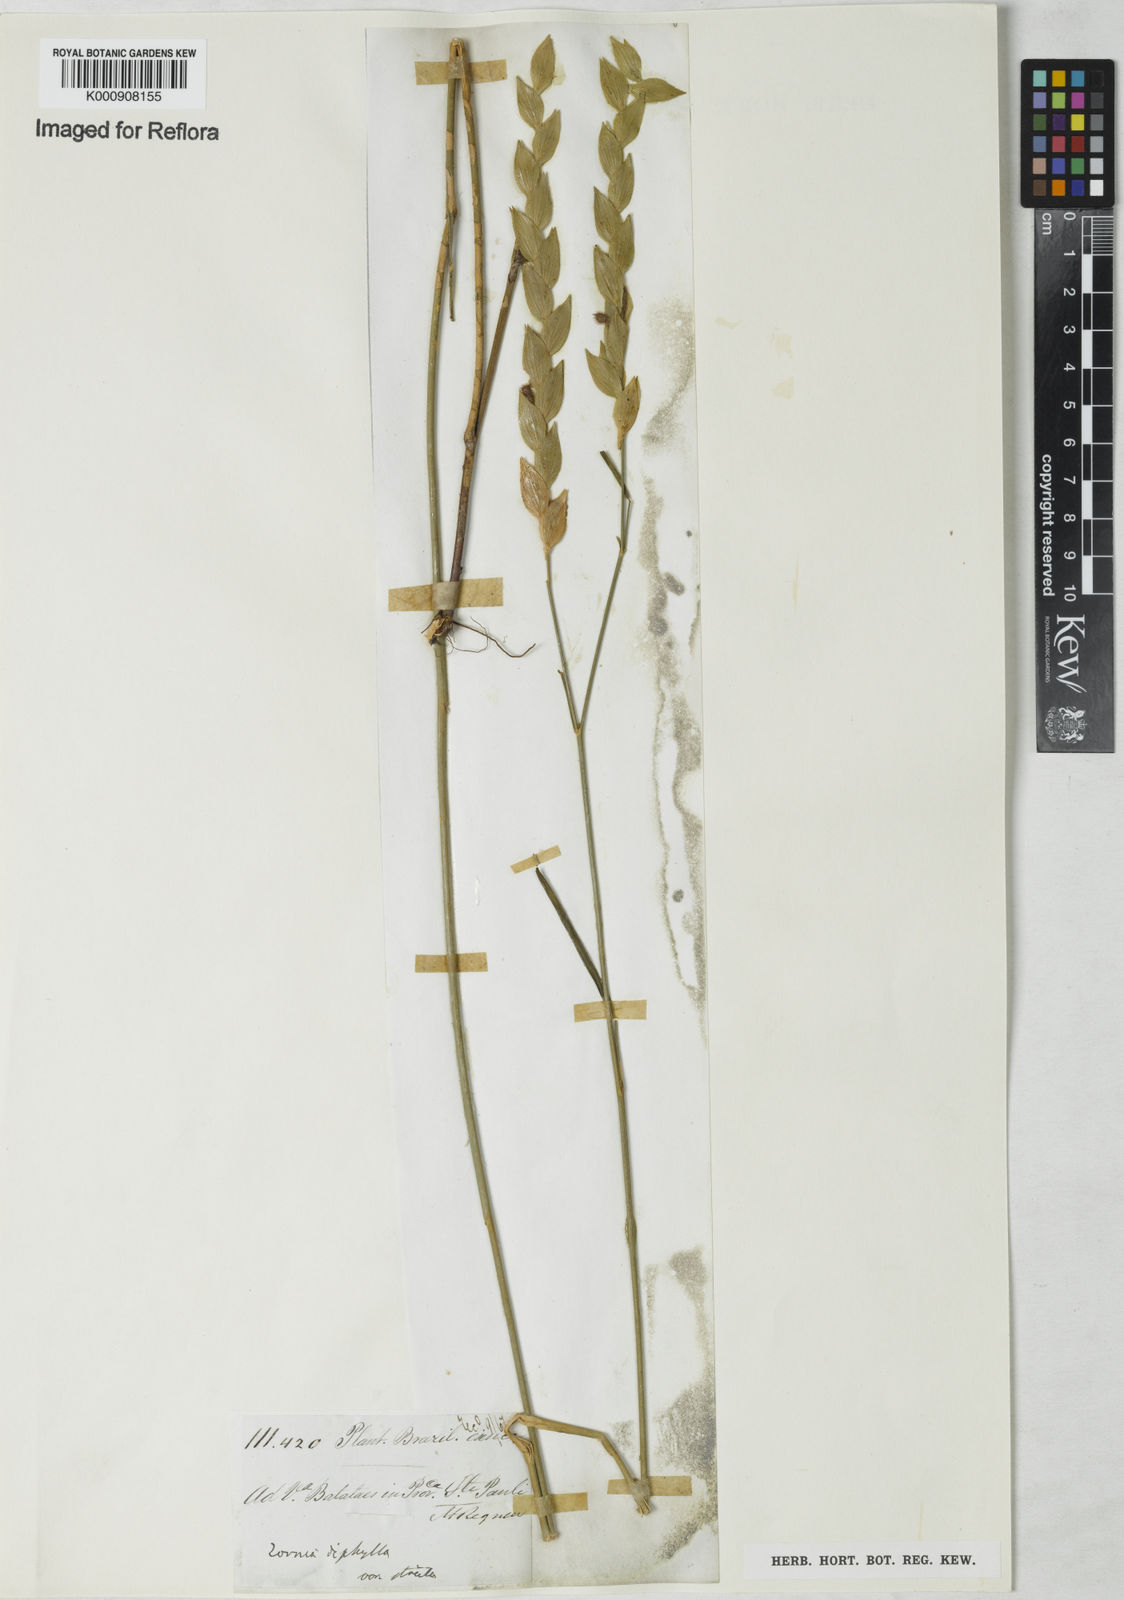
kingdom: Plantae
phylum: Tracheophyta
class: Magnoliopsida
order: Fabales
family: Fabaceae
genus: Zornia
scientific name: Zornia reticulata
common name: Reticulate viperina
